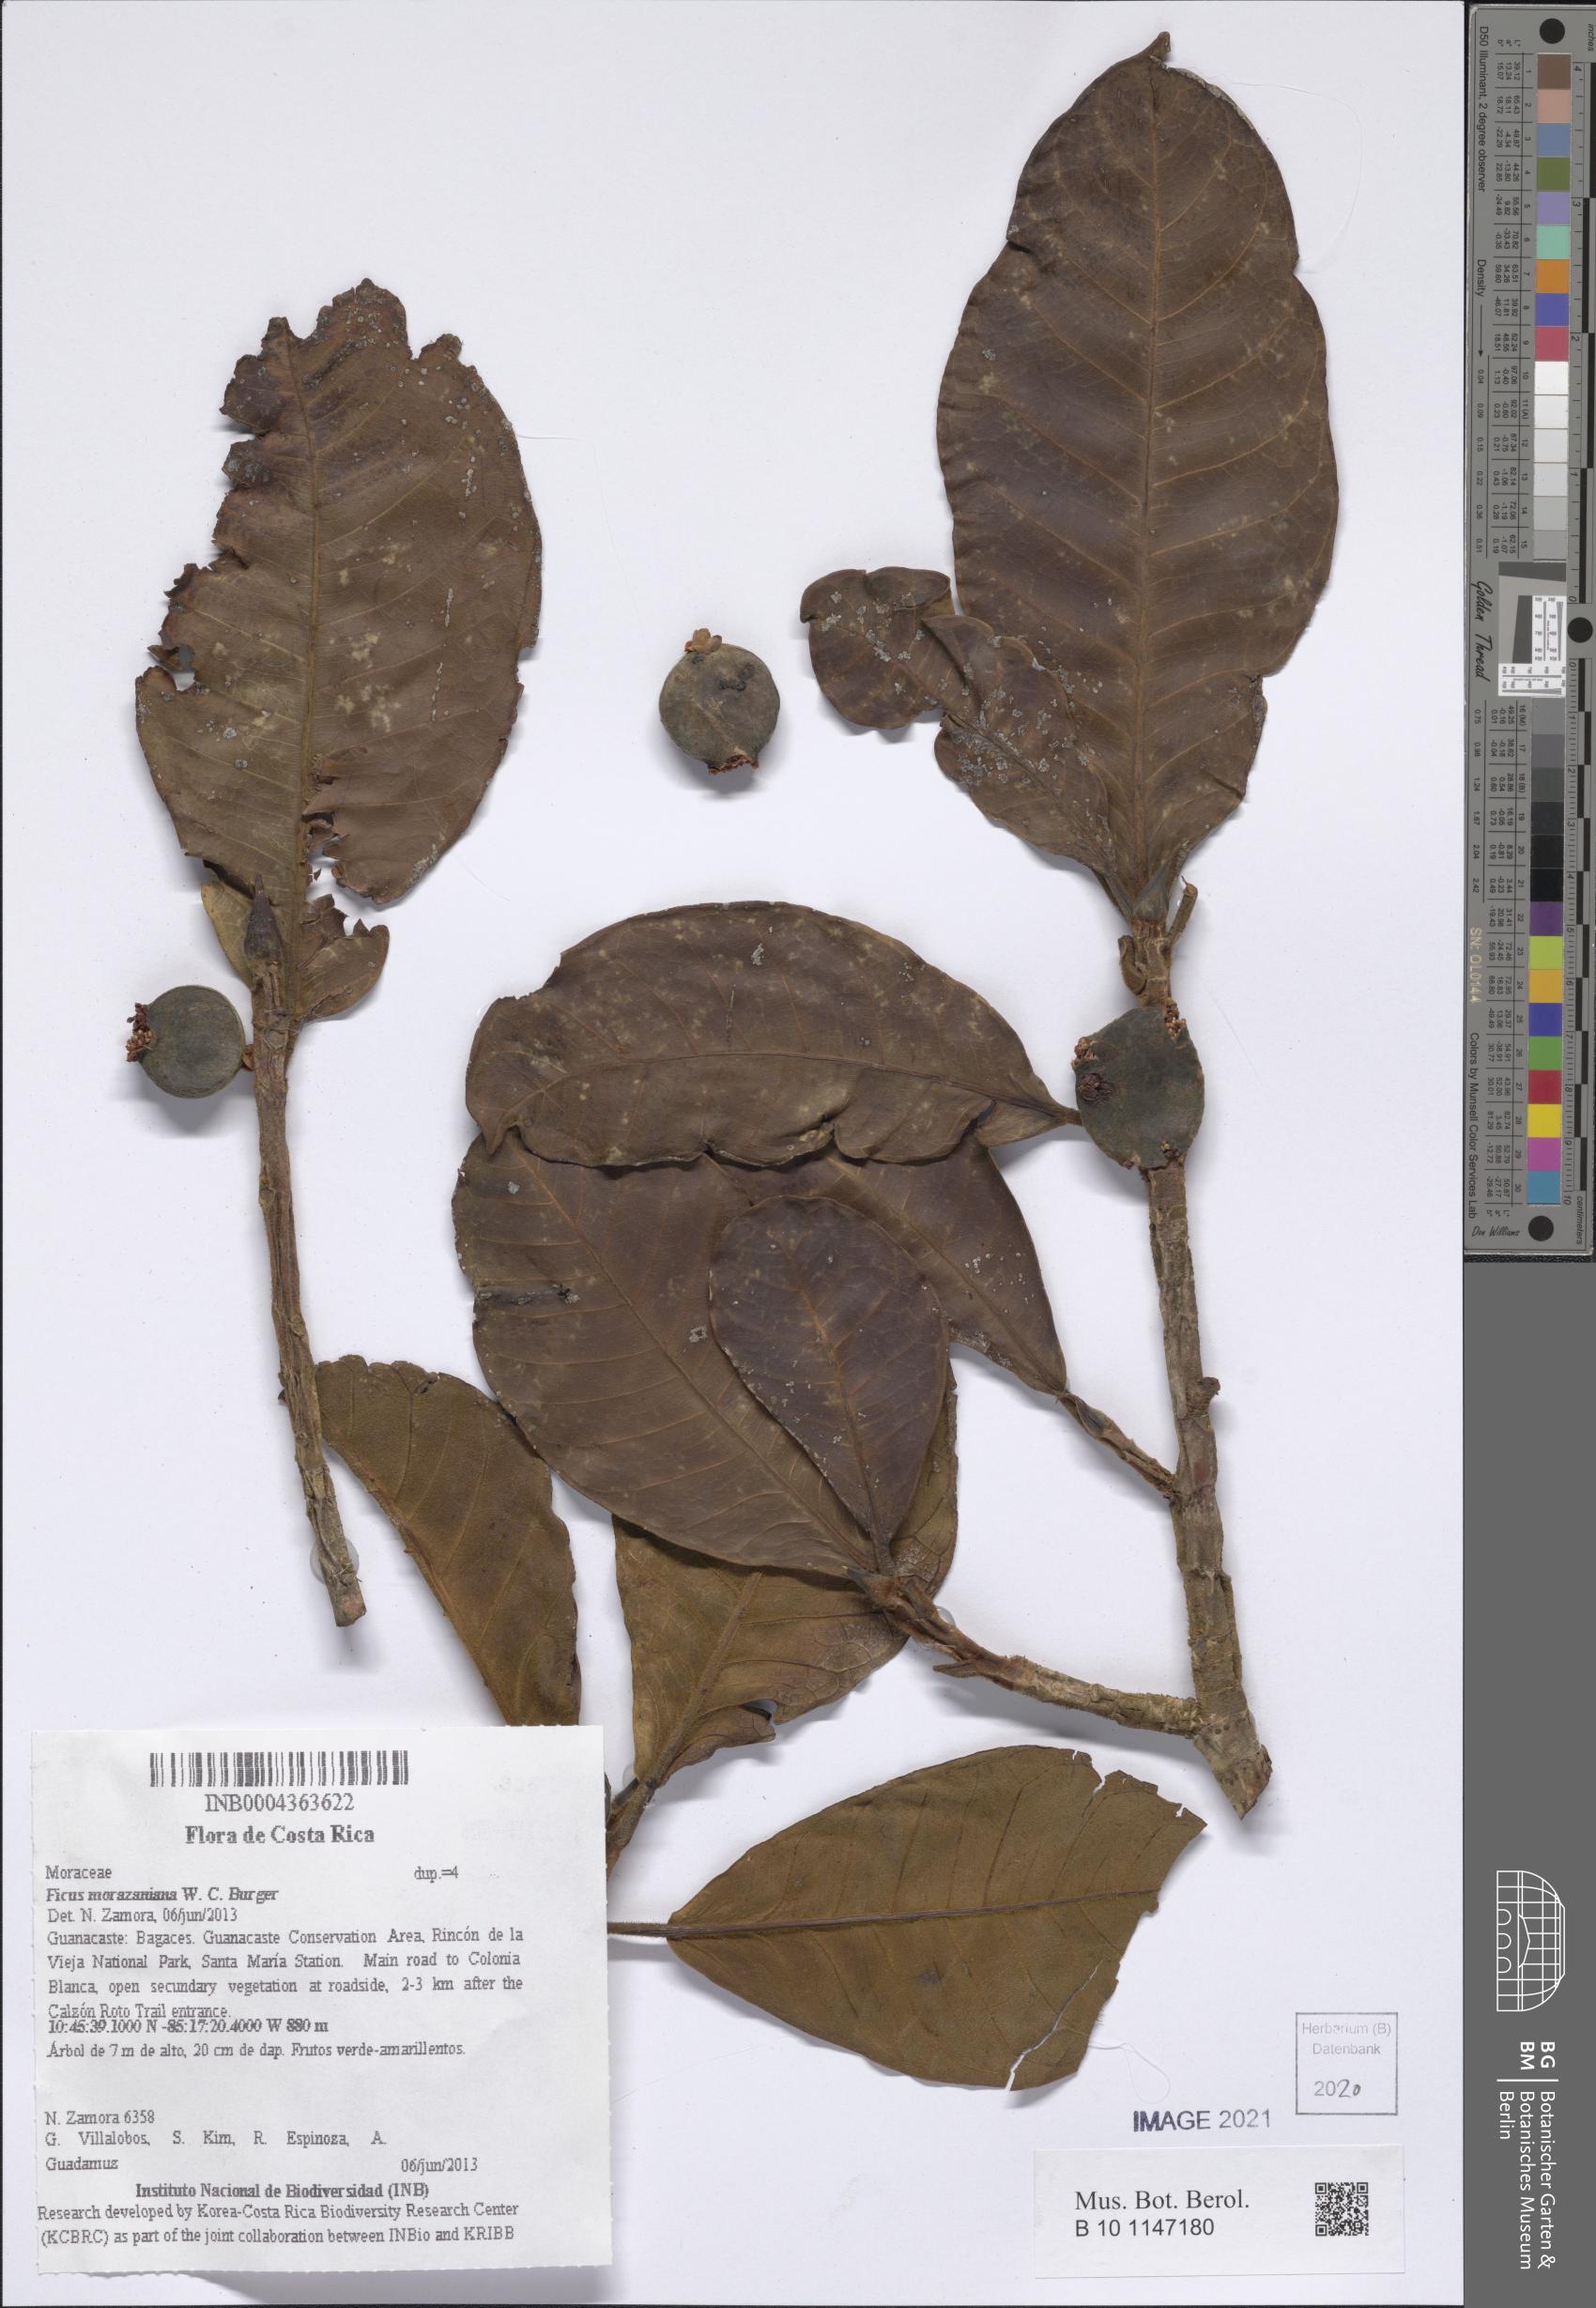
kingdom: Plantae
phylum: Tracheophyta
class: Magnoliopsida
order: Rosales
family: Moraceae
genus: Ficus
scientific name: Ficus crocata
